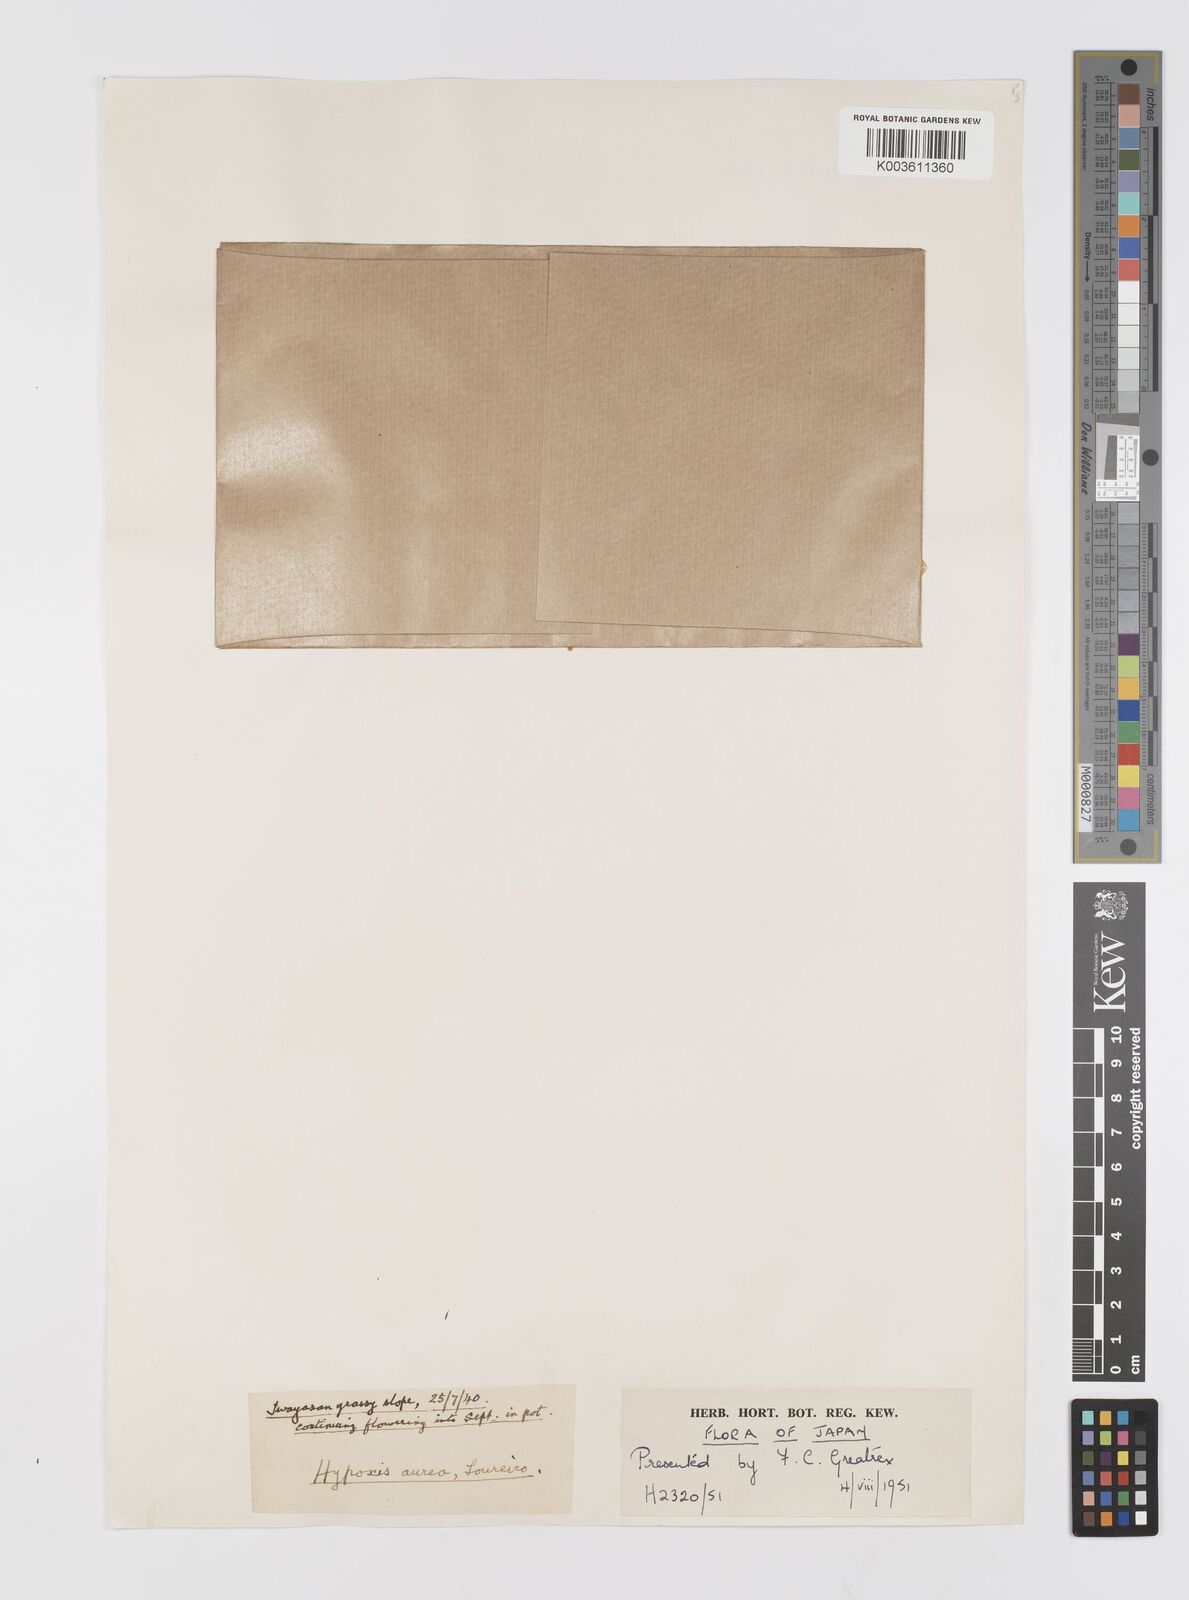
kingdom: Plantae
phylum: Tracheophyta
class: Liliopsida
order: Asparagales
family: Hypoxidaceae
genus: Hypoxis
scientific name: Hypoxis aurea
